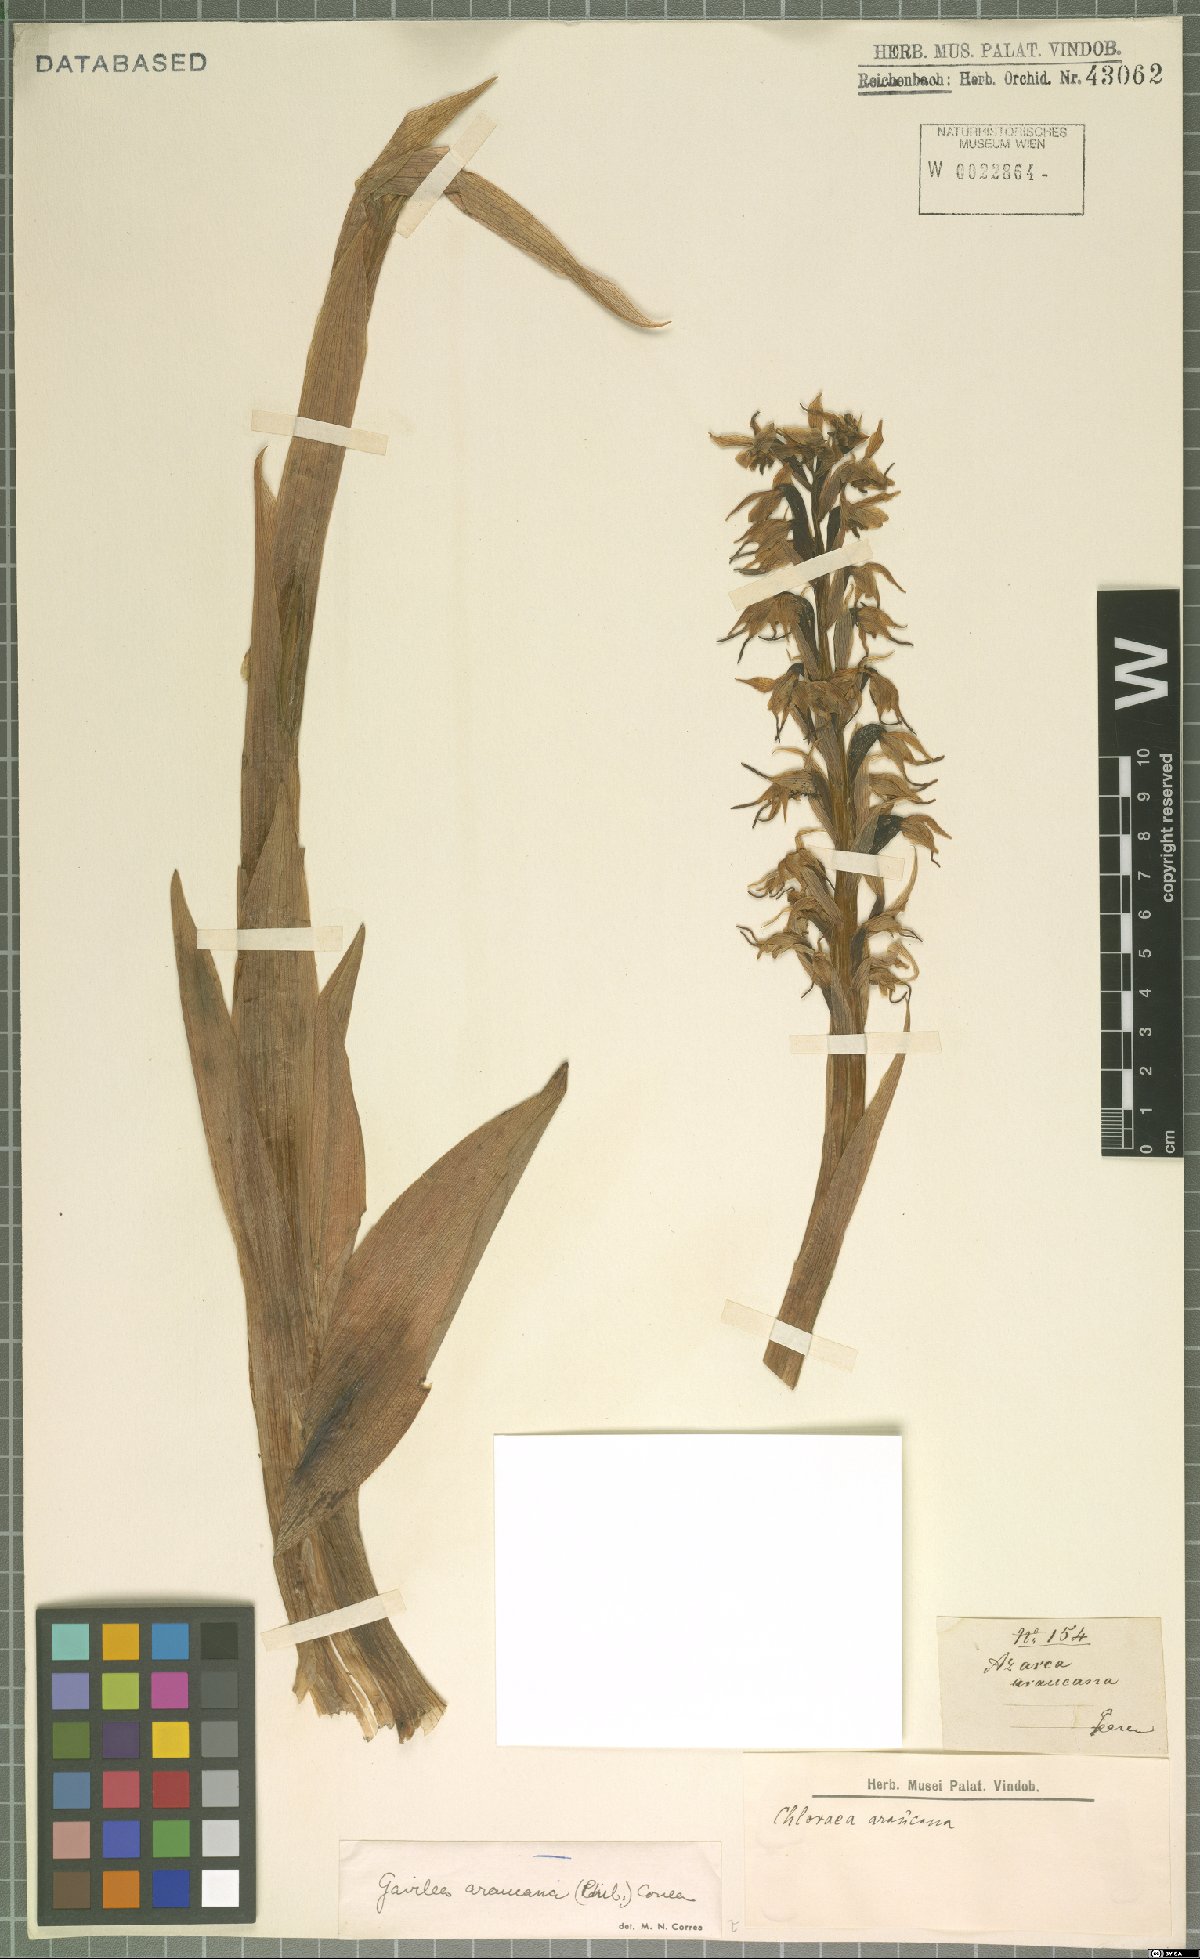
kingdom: Plantae
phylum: Tracheophyta
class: Liliopsida
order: Asparagales
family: Orchidaceae
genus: Gavilea
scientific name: Gavilea araucana
